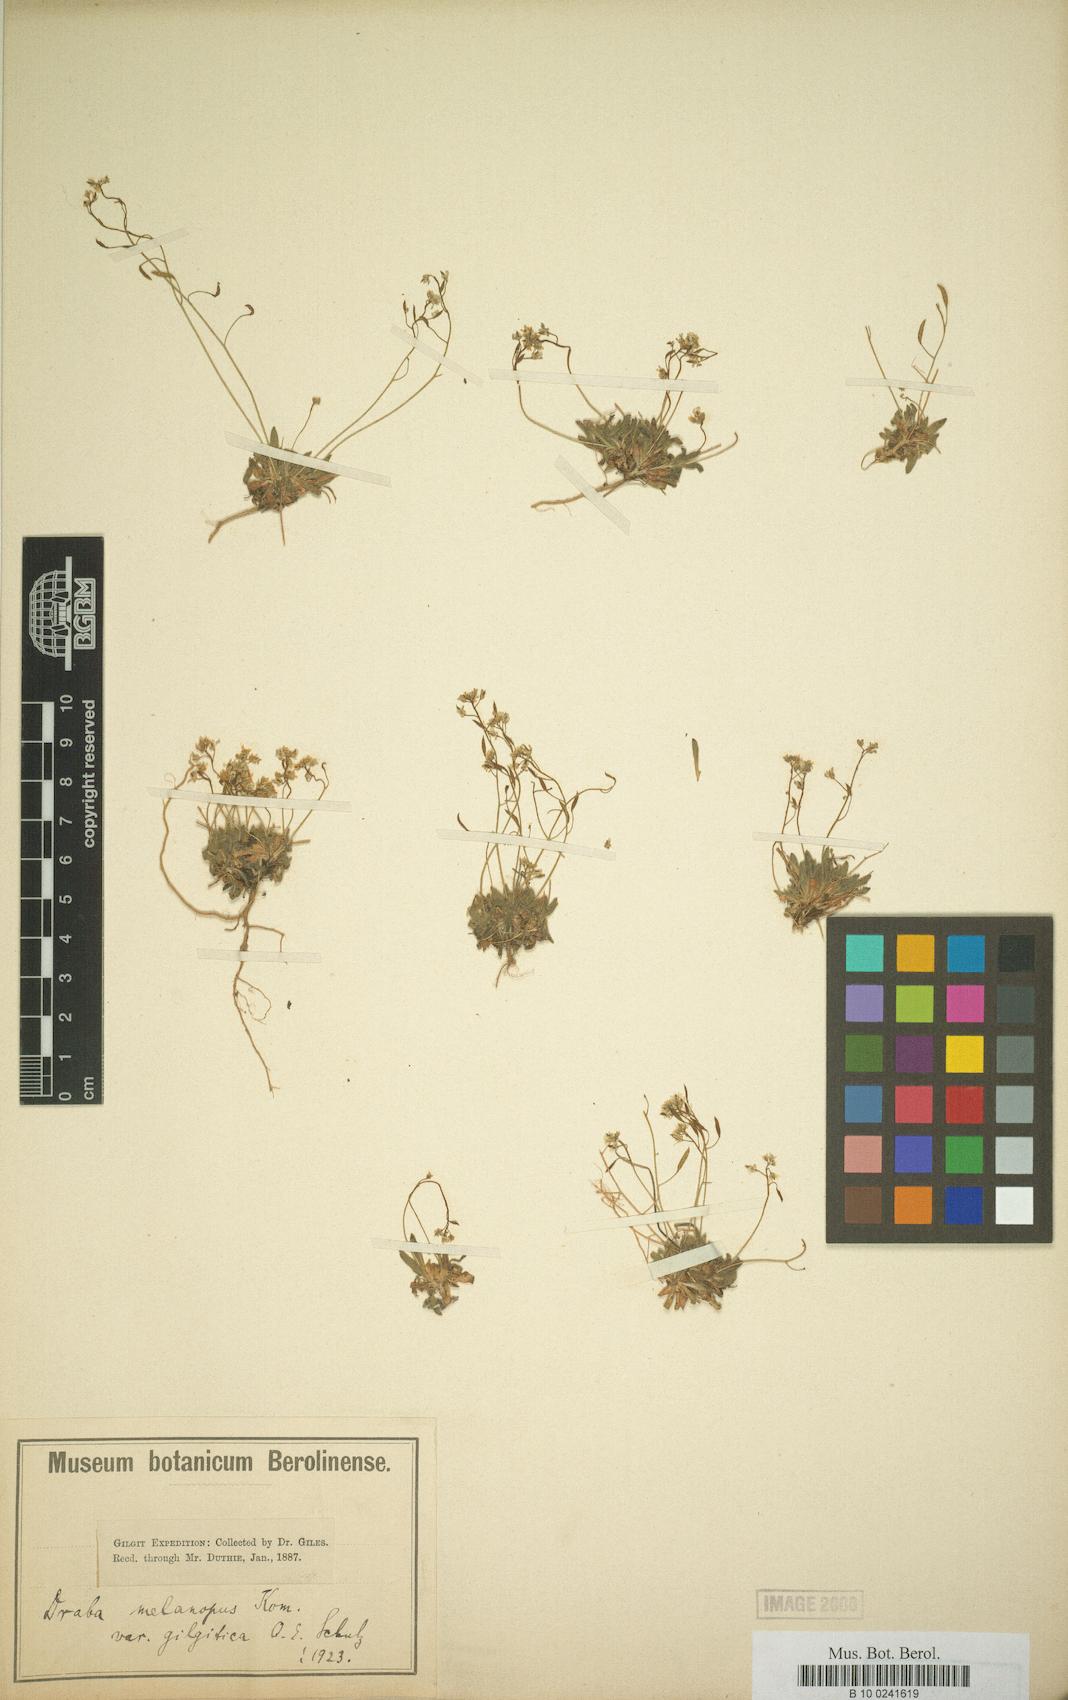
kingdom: Plantae
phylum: Tracheophyta
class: Magnoliopsida
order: Brassicales
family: Brassicaceae
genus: Draba
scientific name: Draba melanopus
